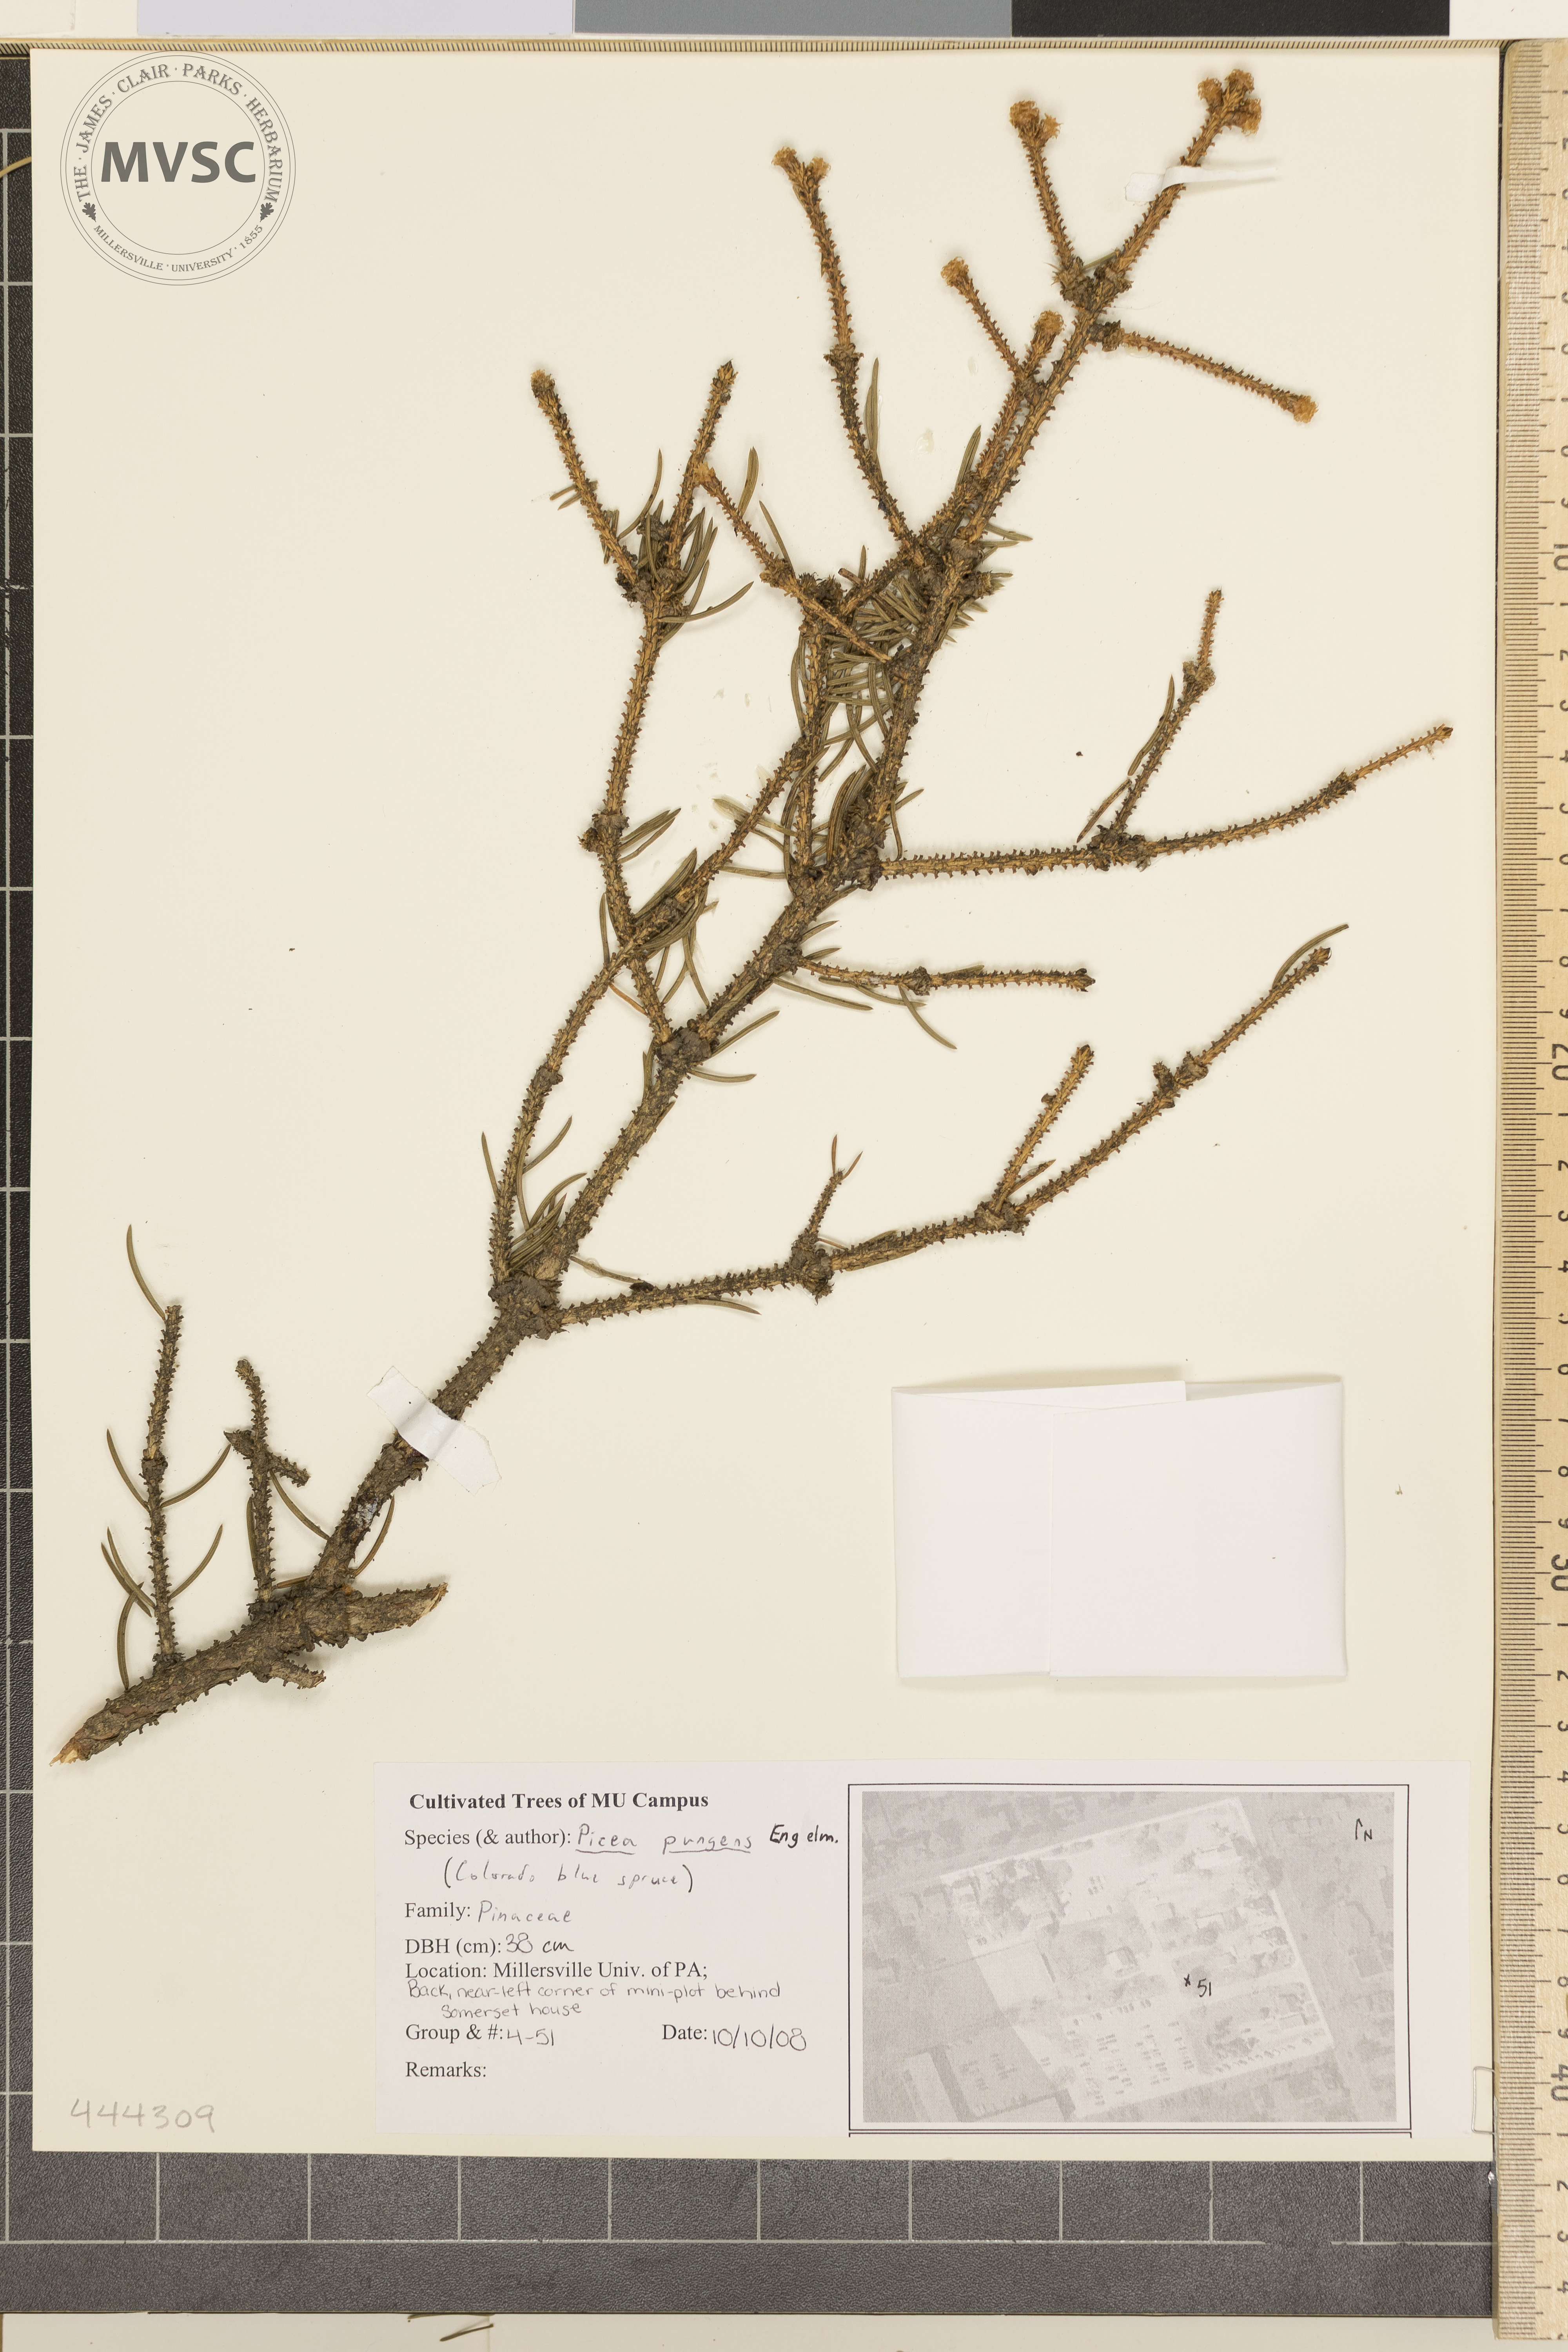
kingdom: Plantae
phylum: Tracheophyta
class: Pinopsida
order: Pinales
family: Pinaceae
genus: Picea
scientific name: Picea pungens
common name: Colorado Blue Spruce
